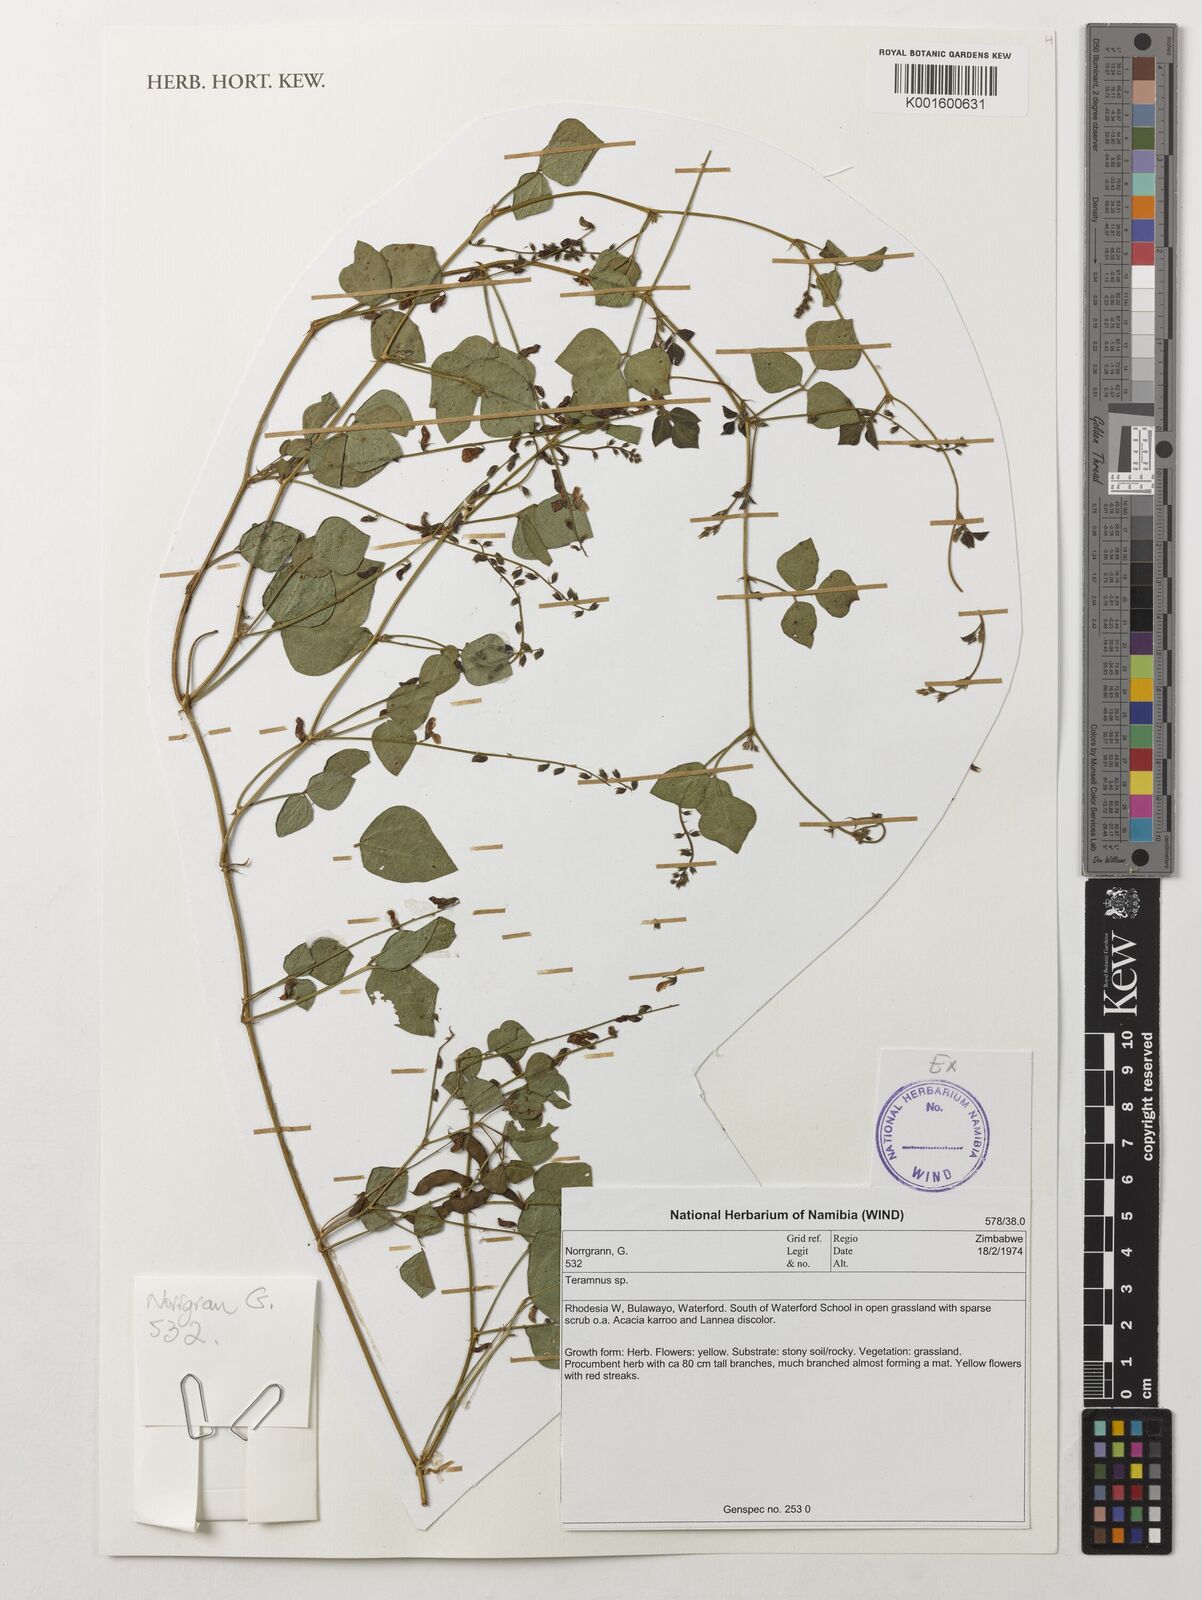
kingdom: Plantae
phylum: Tracheophyta
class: Magnoliopsida
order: Fabales
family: Fabaceae
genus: Teramnus
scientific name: Teramnus
